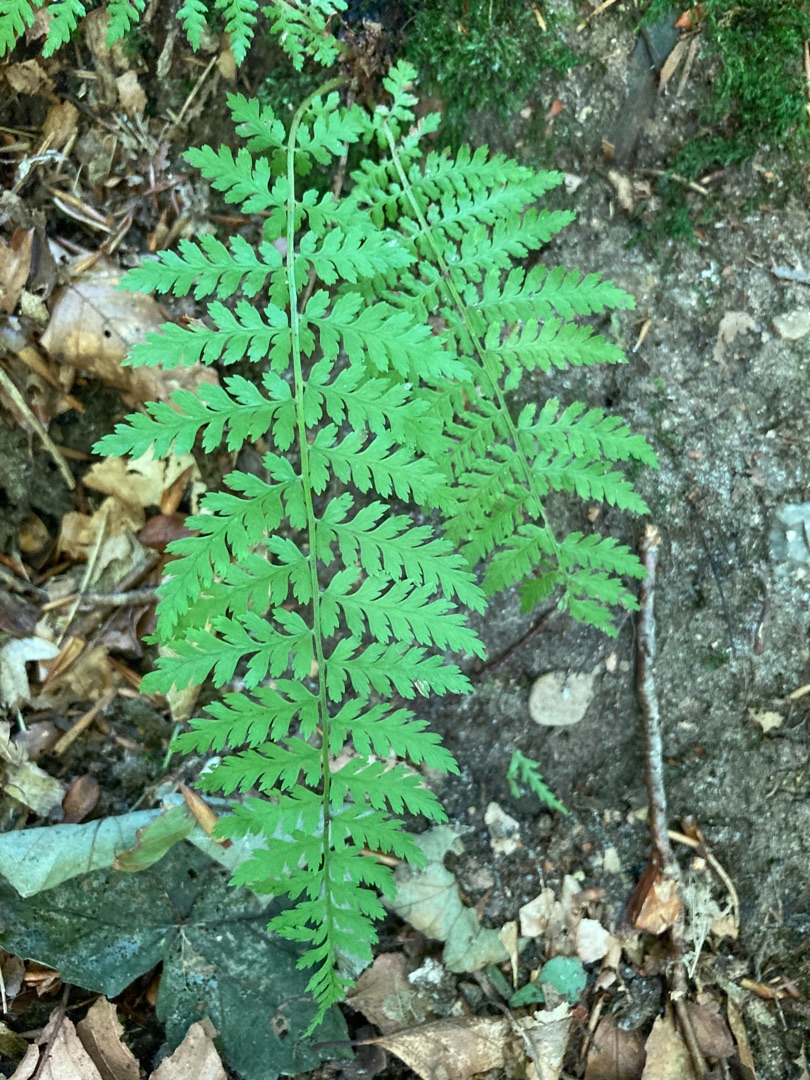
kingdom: Plantae
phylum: Tracheophyta
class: Polypodiopsida
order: Polypodiales
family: Dryopteridaceae
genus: Dryopteris
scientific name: Dryopteris
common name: Mangeløv (Dryopteris-slægten)
